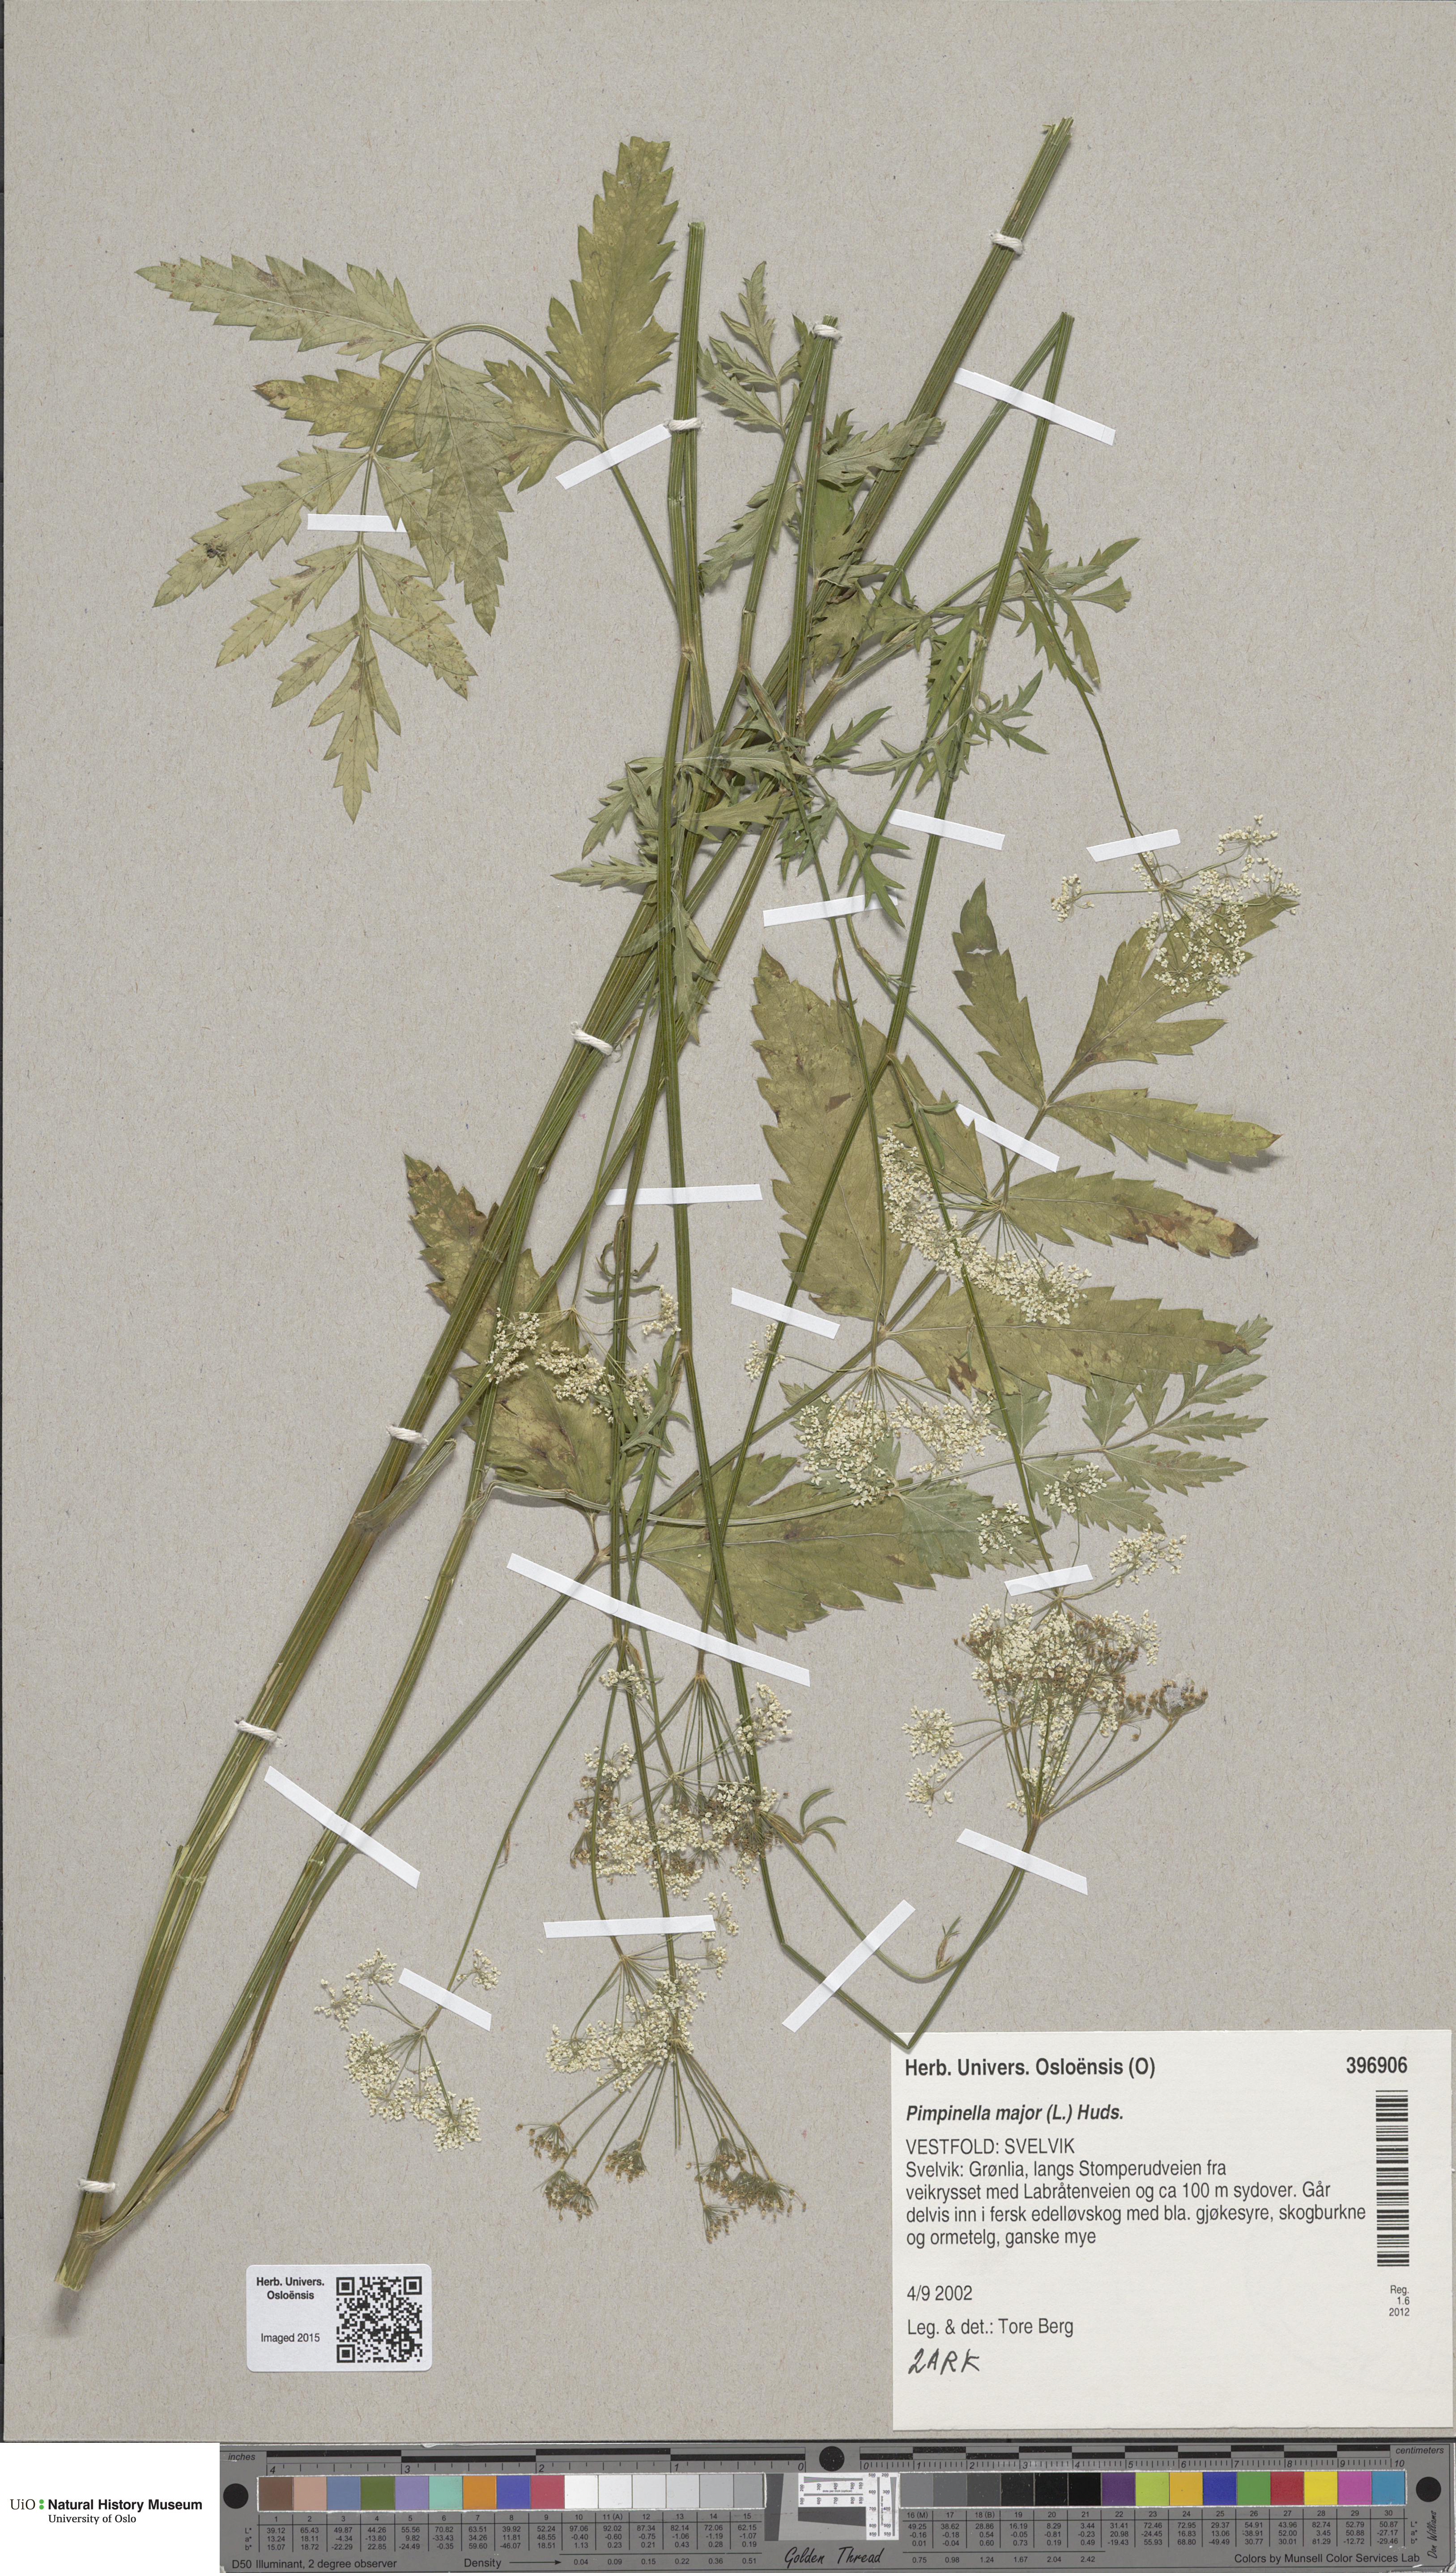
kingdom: Plantae
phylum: Tracheophyta
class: Magnoliopsida
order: Apiales
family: Apiaceae
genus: Pimpinella
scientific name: Pimpinella major
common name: Greater burnet-saxifrage
